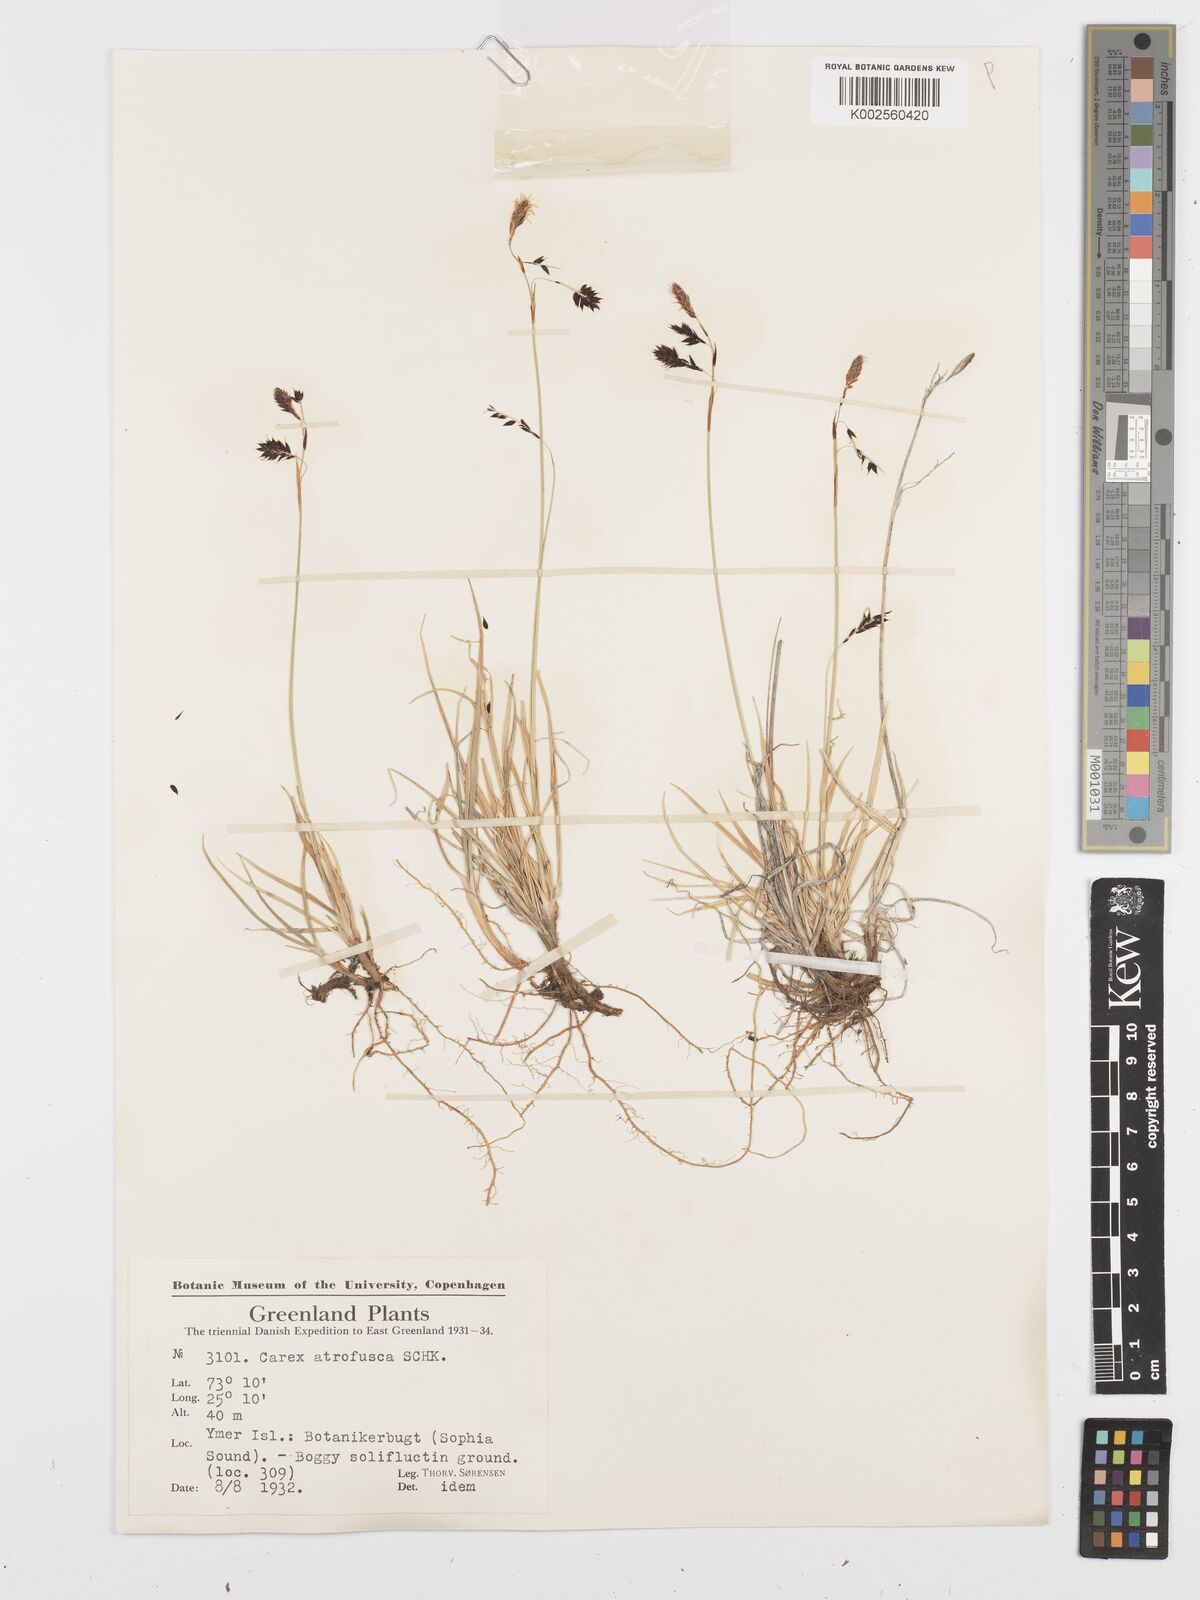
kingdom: Plantae
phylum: Tracheophyta
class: Liliopsida
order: Poales
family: Cyperaceae
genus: Carex
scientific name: Carex atrofusca
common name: Scorched alpine-sedge
